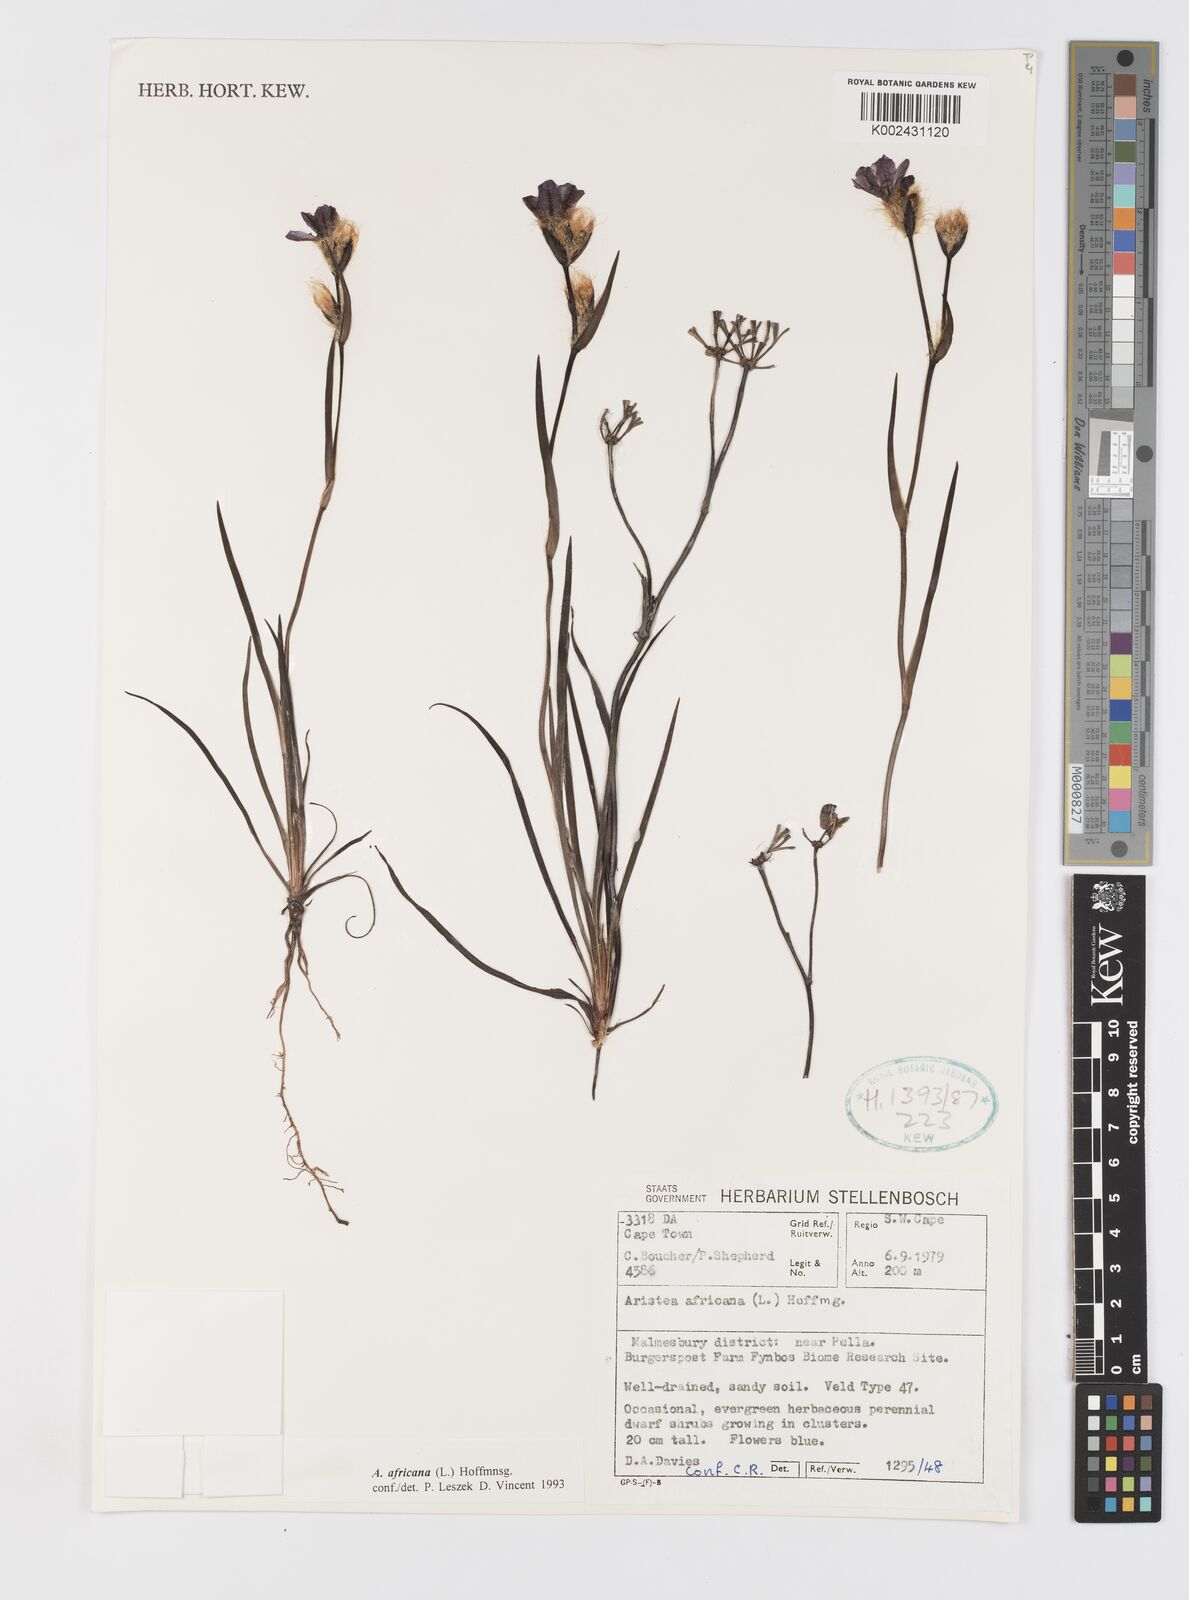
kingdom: Plantae
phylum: Tracheophyta
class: Liliopsida
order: Asparagales
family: Iridaceae
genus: Aristea
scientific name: Aristea africana
